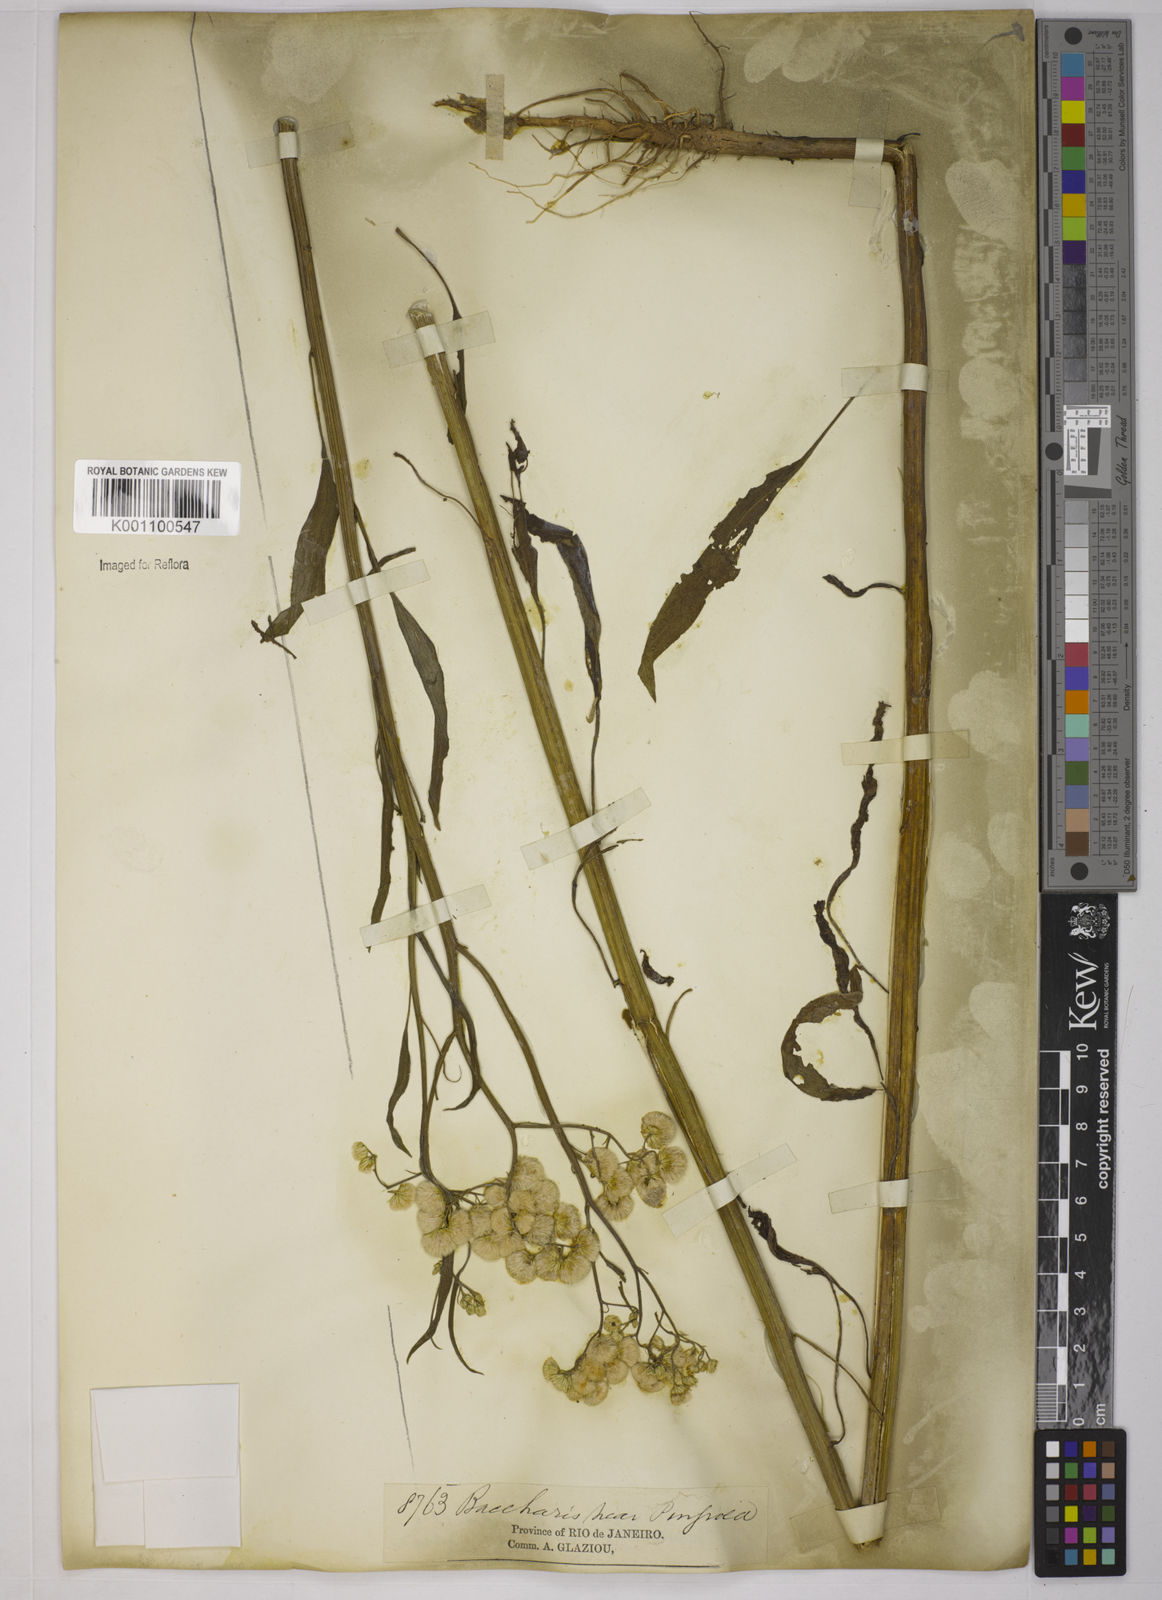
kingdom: Plantae
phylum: Tracheophyta
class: Magnoliopsida
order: Asterales
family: Asteraceae
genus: Baccharis
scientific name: Baccharis glutinosa
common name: Saltmarsh baccharis
